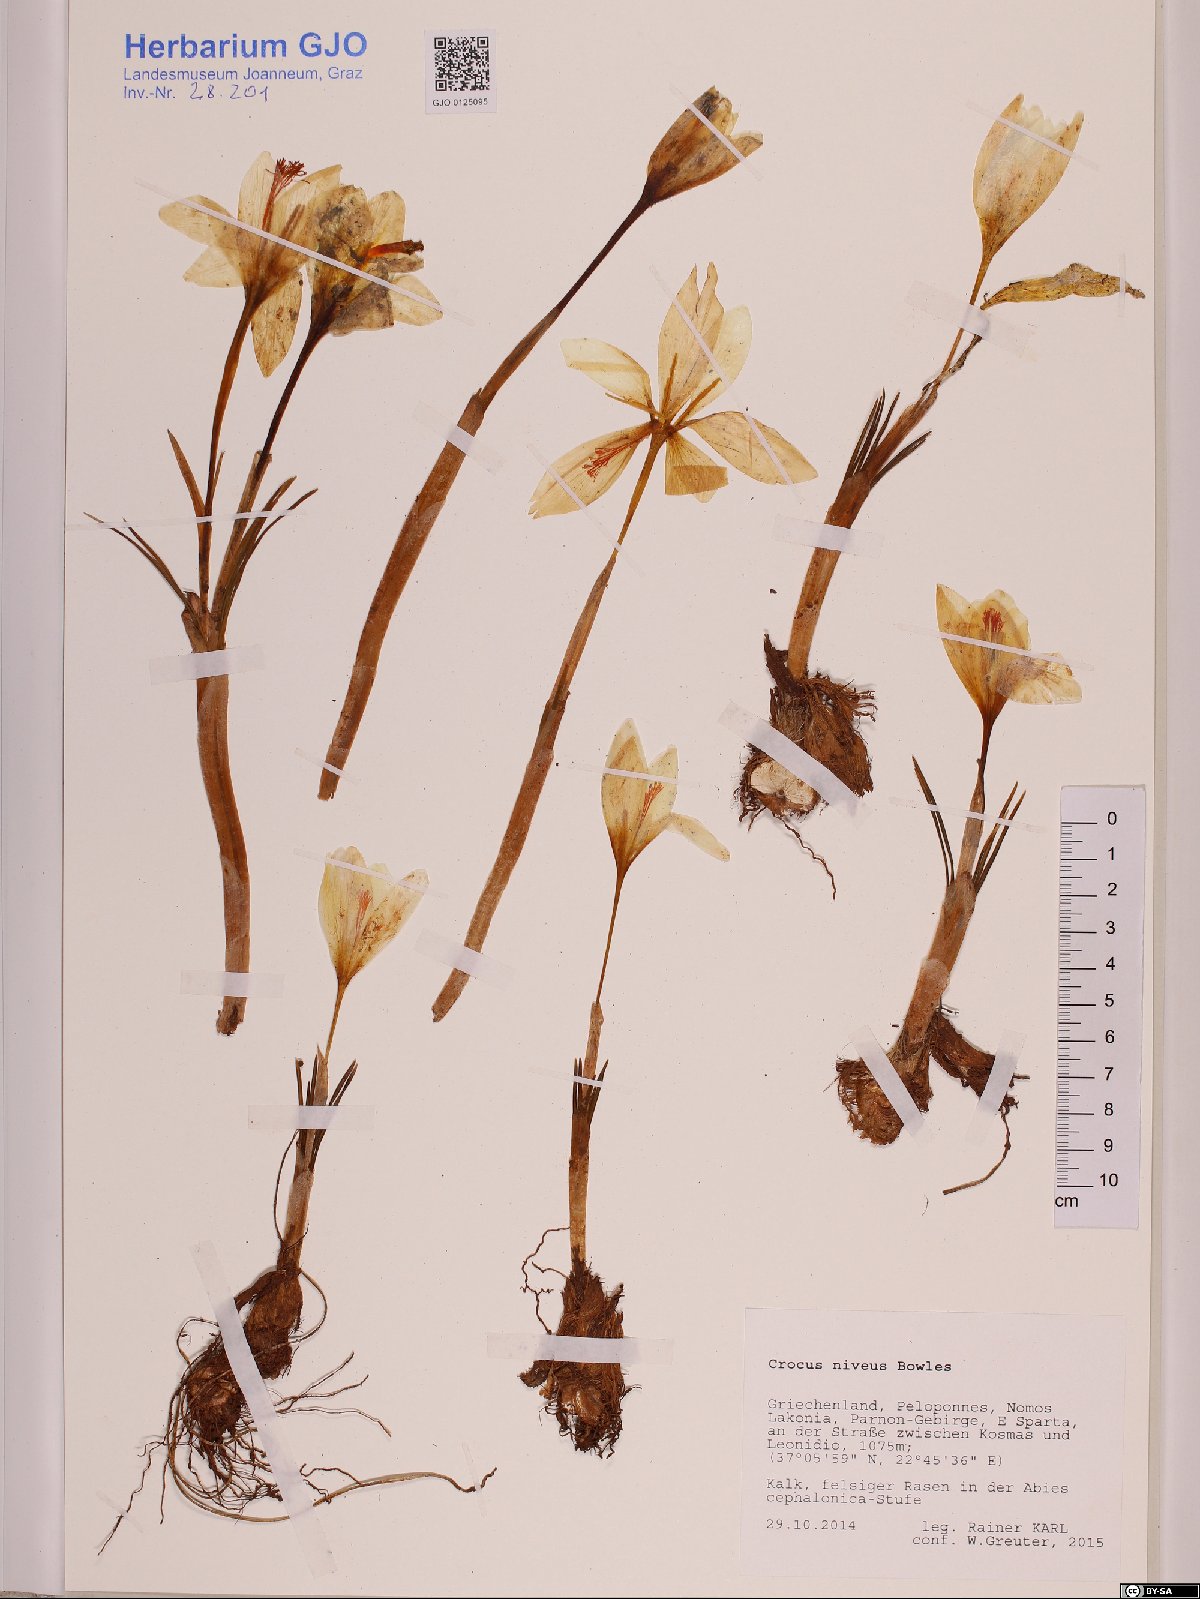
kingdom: Plantae
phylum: Tracheophyta
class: Liliopsida
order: Asparagales
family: Iridaceae
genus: Crocus
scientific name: Crocus niveus
